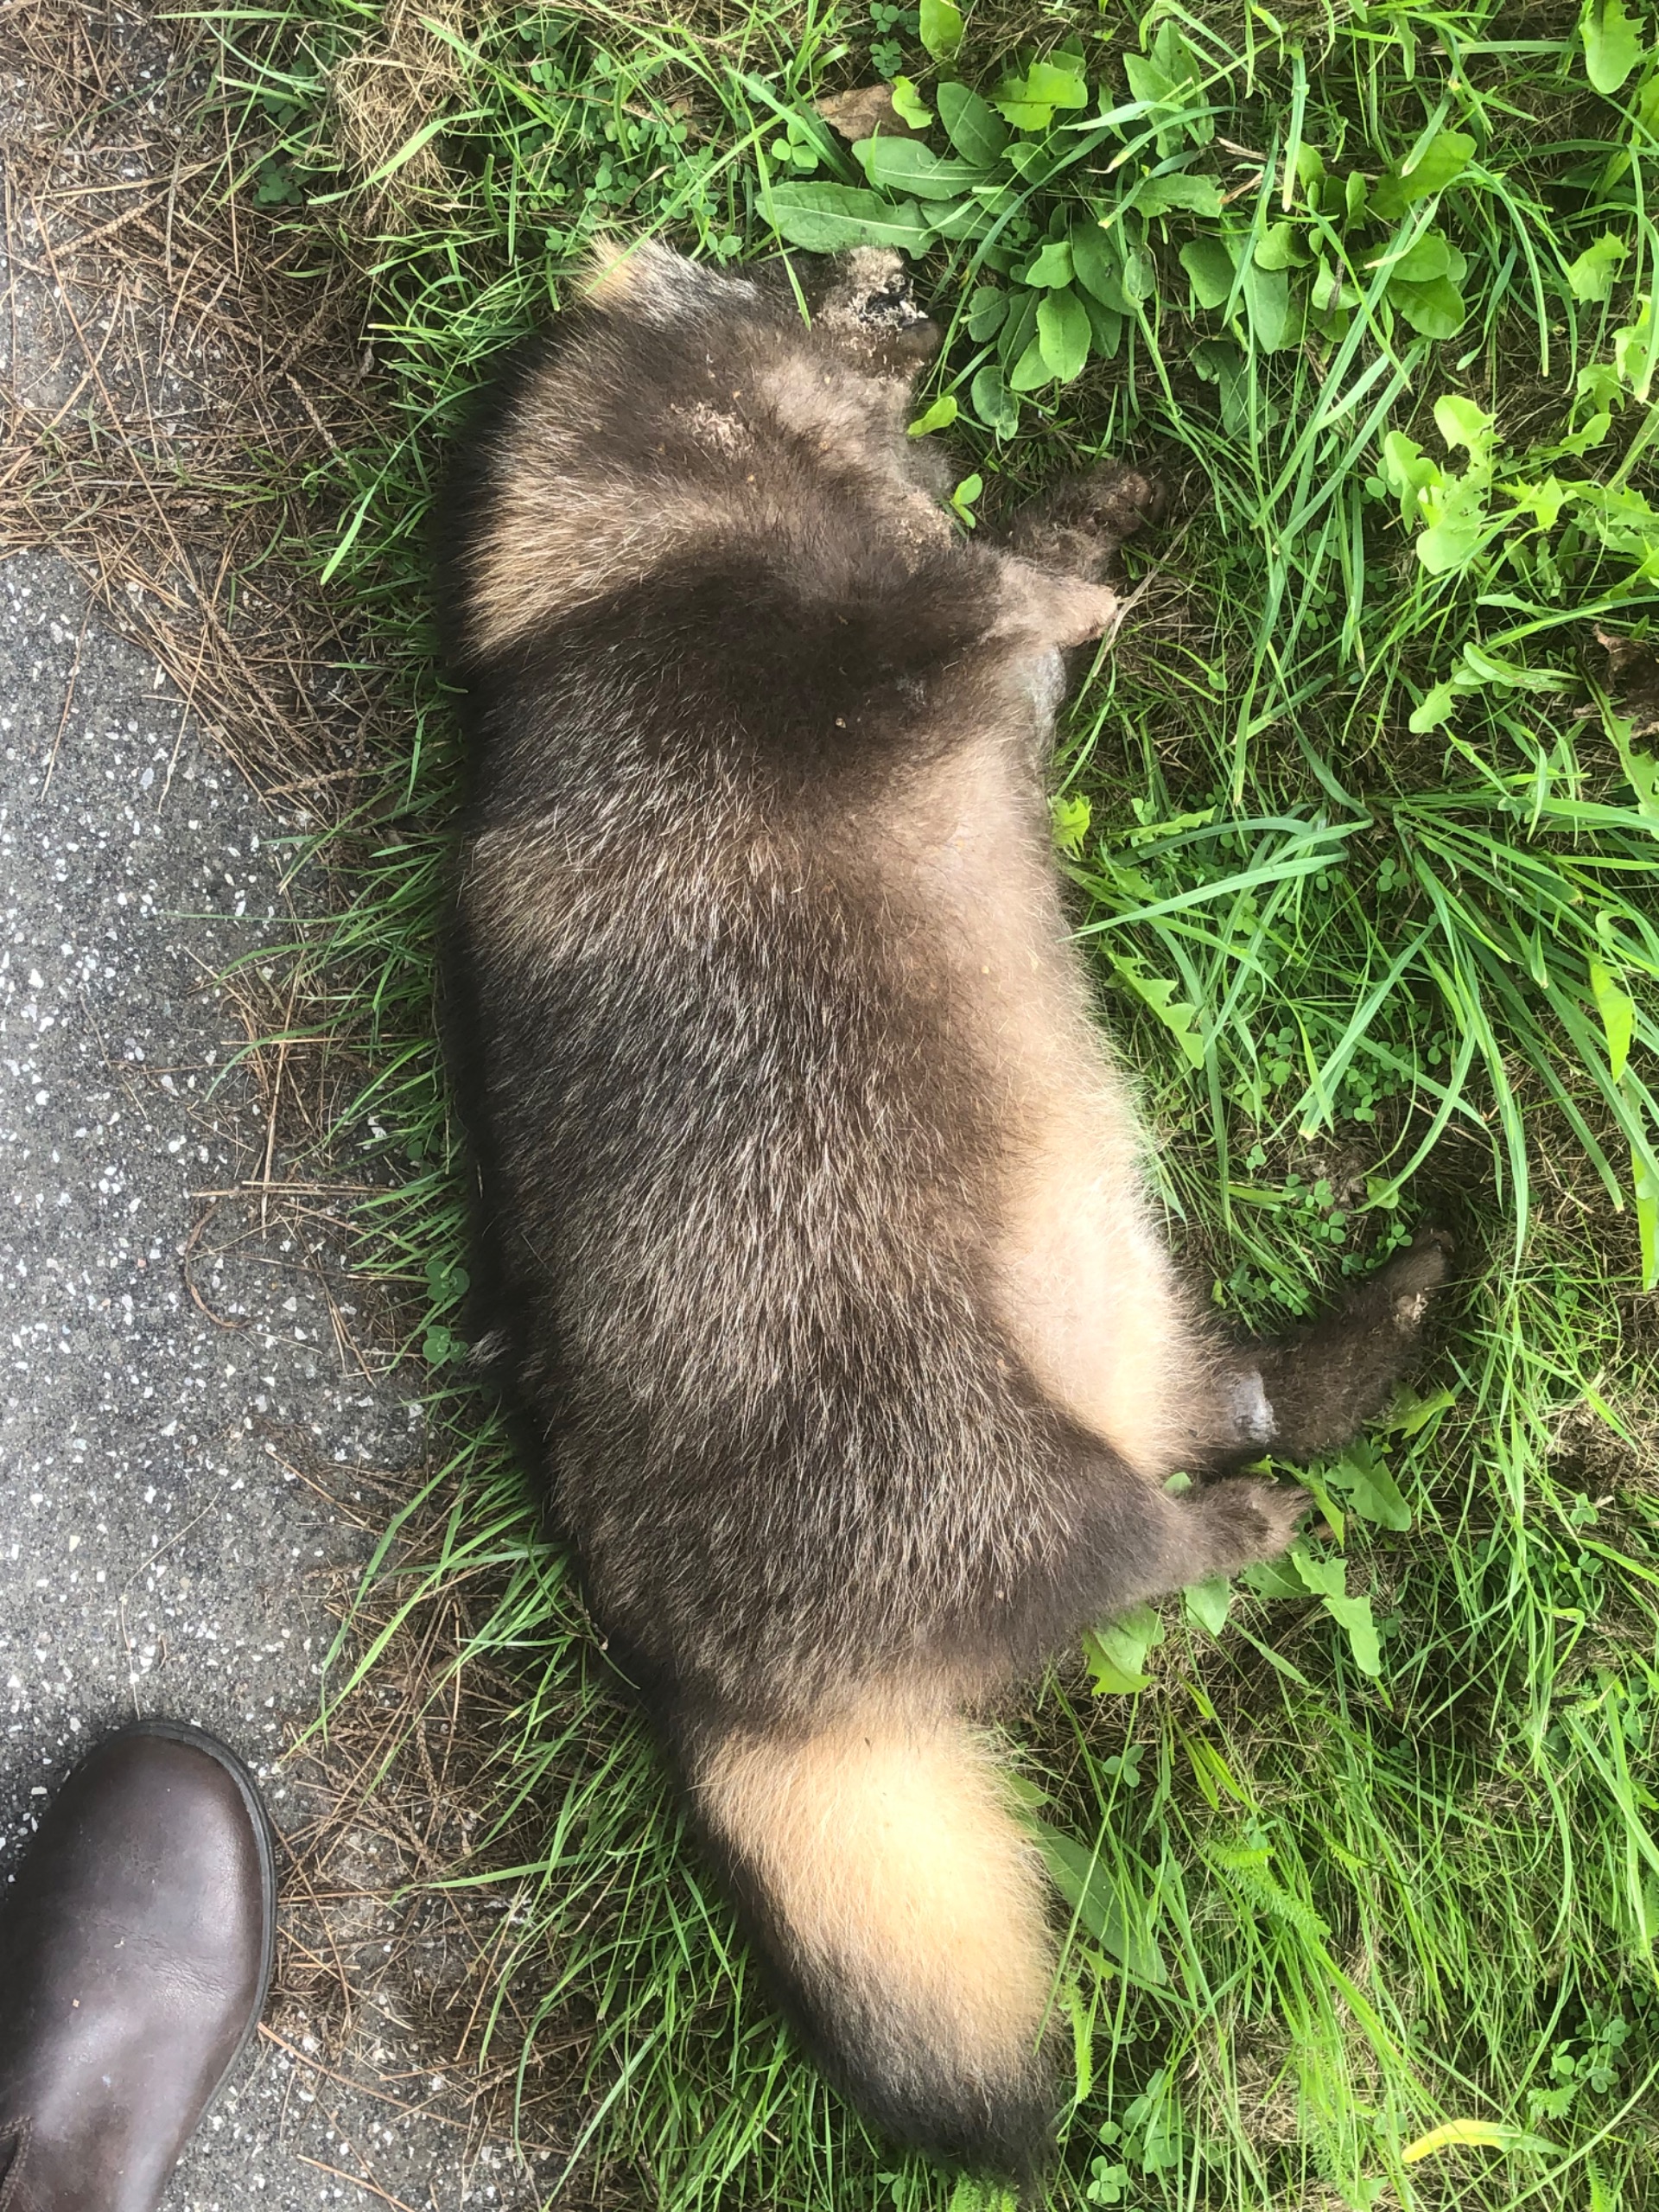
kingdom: Animalia
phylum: Chordata
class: Mammalia
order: Carnivora
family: Canidae
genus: Nyctereutes
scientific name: Nyctereutes procyonoides
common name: Mårhund
